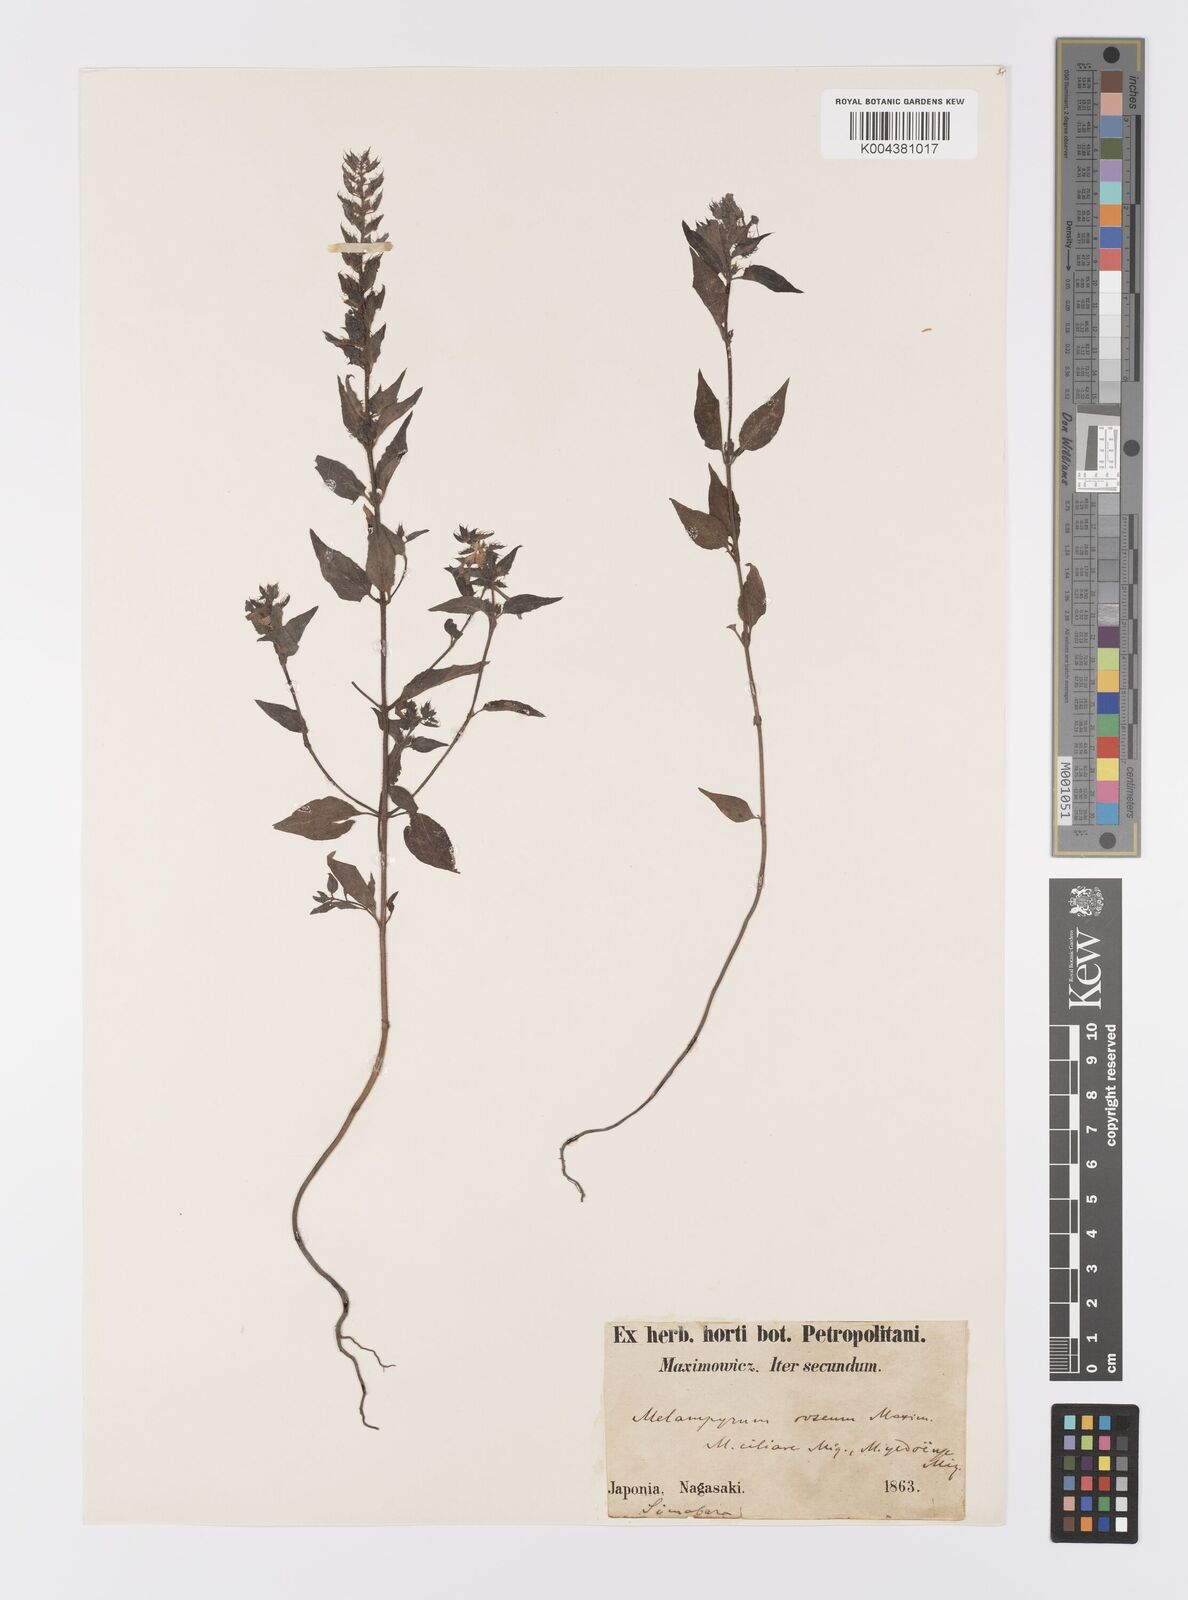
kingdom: Plantae
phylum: Tracheophyta
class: Magnoliopsida
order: Lamiales
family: Orobanchaceae
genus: Melampyrum
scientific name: Melampyrum roseum
